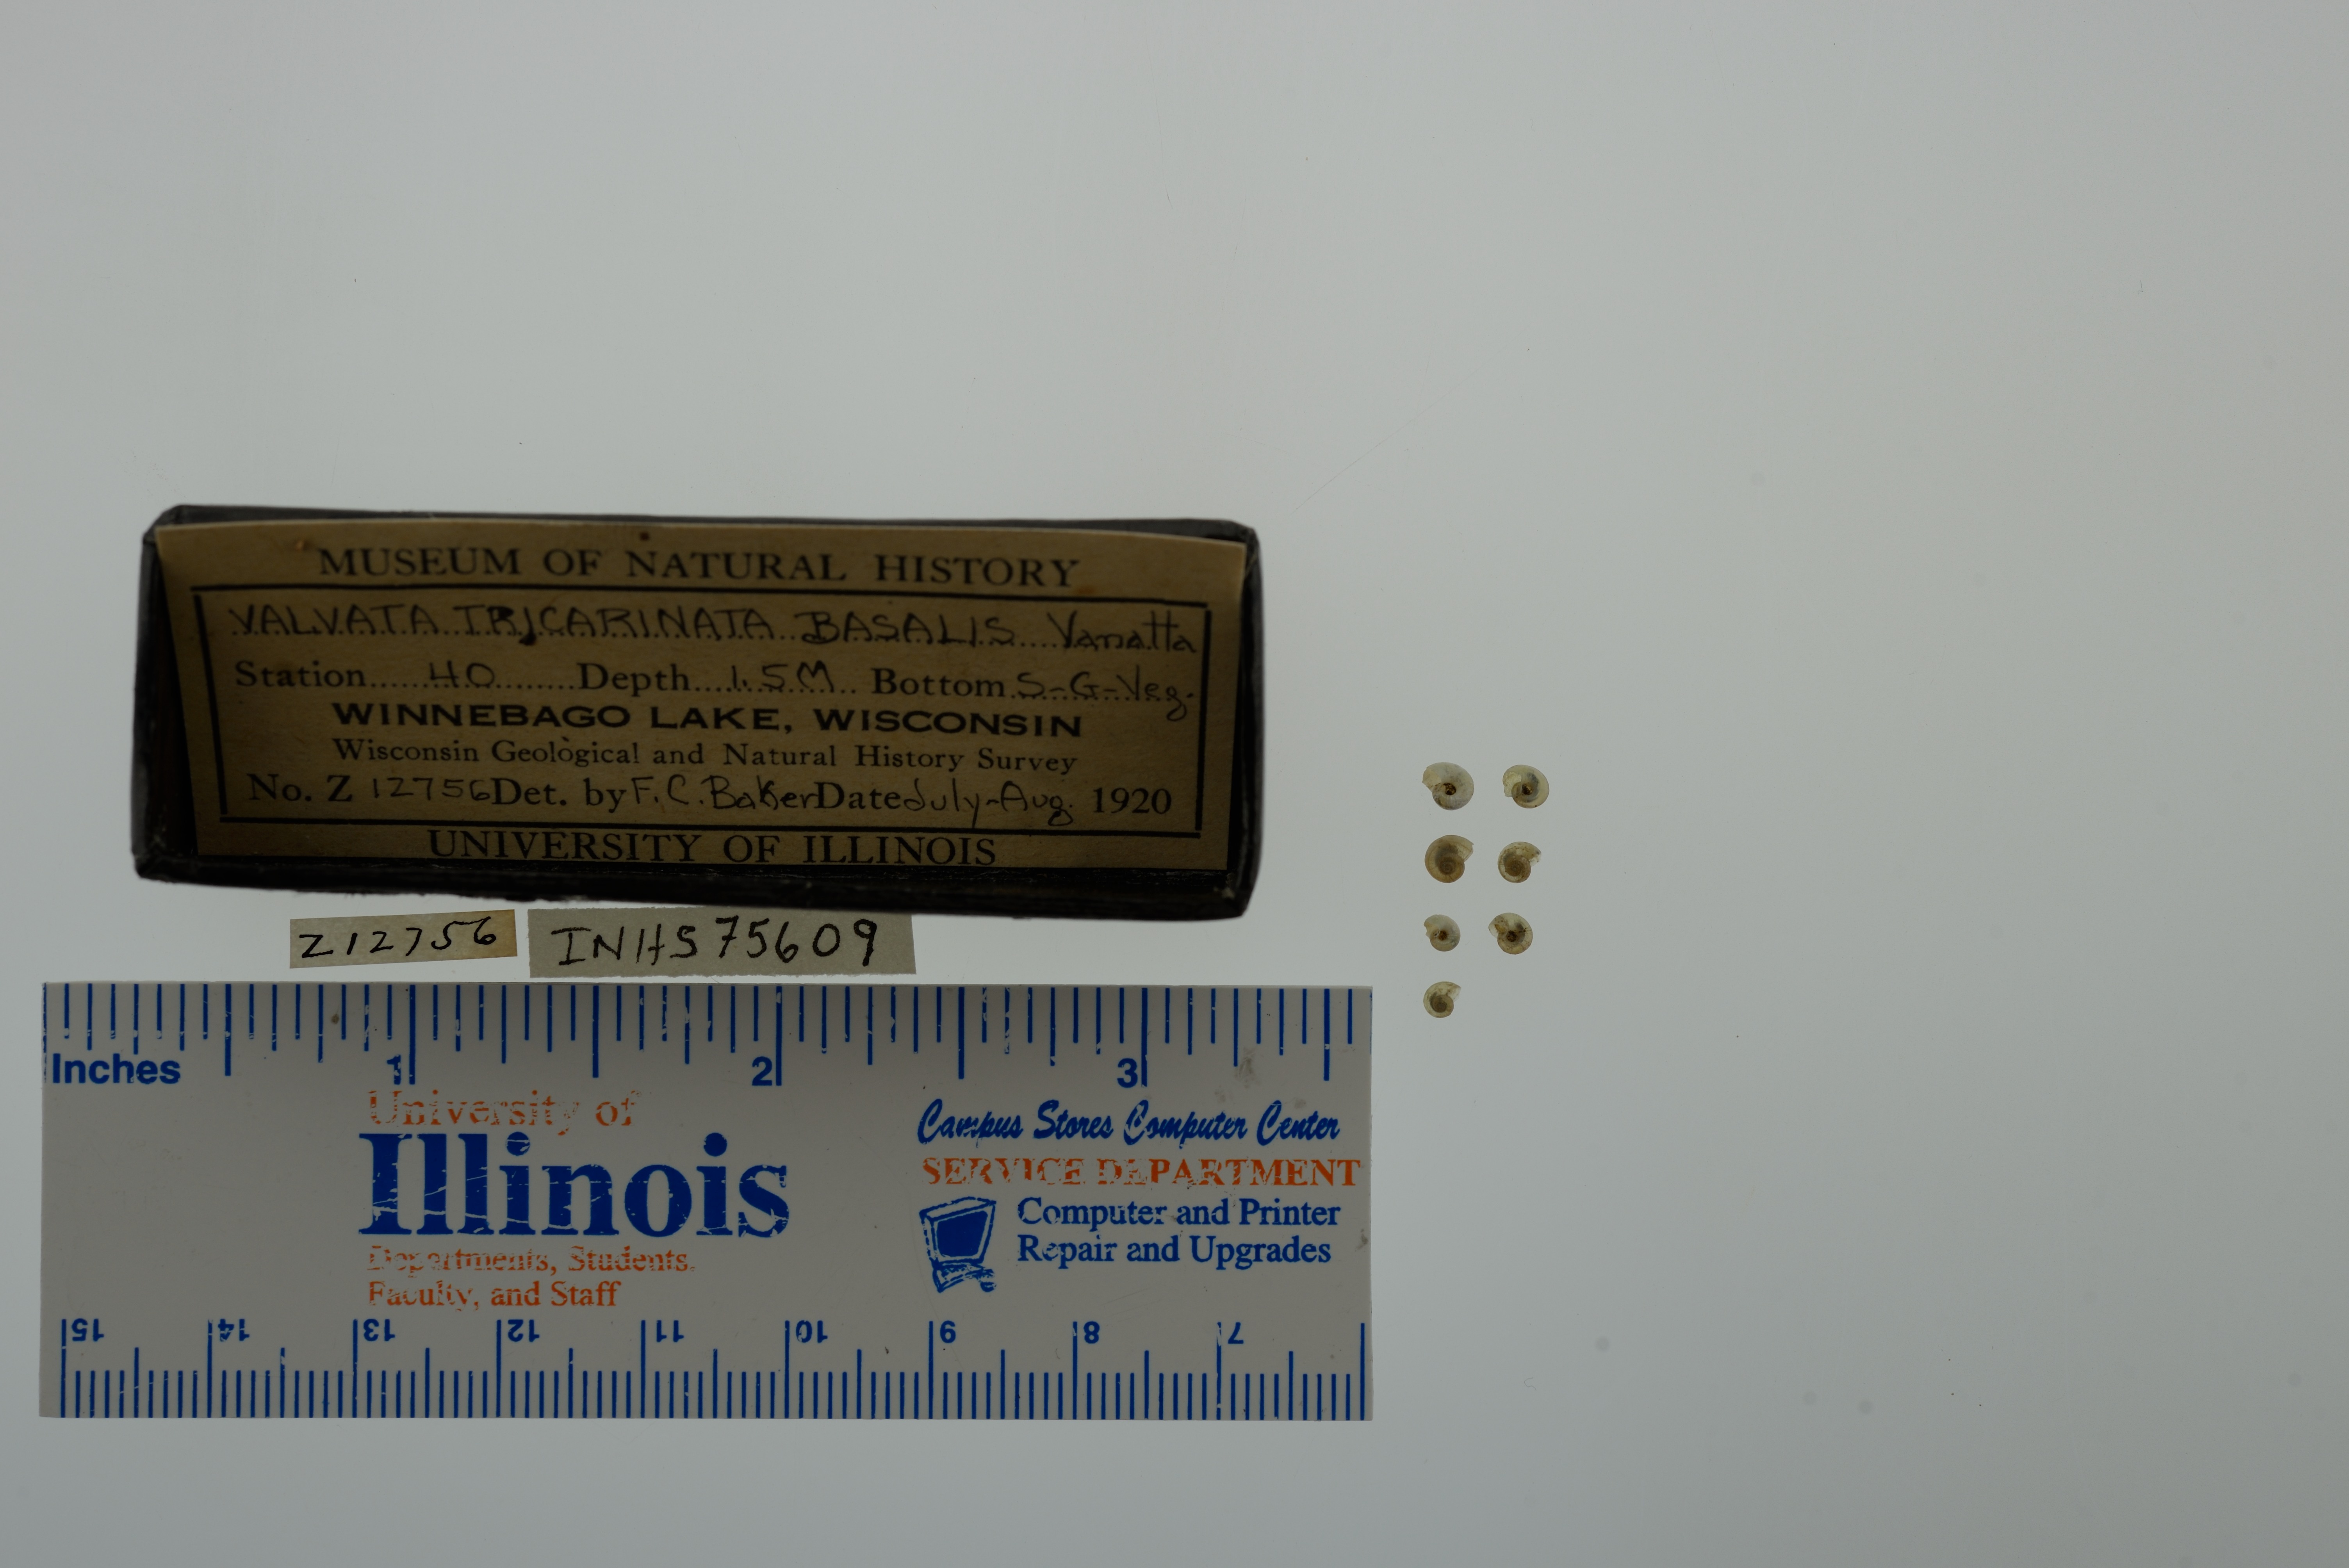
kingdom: Animalia
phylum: Mollusca
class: Gastropoda
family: Valvatidae
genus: Valvata
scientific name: Valvata tricarinata
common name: Three-ridge valvata
